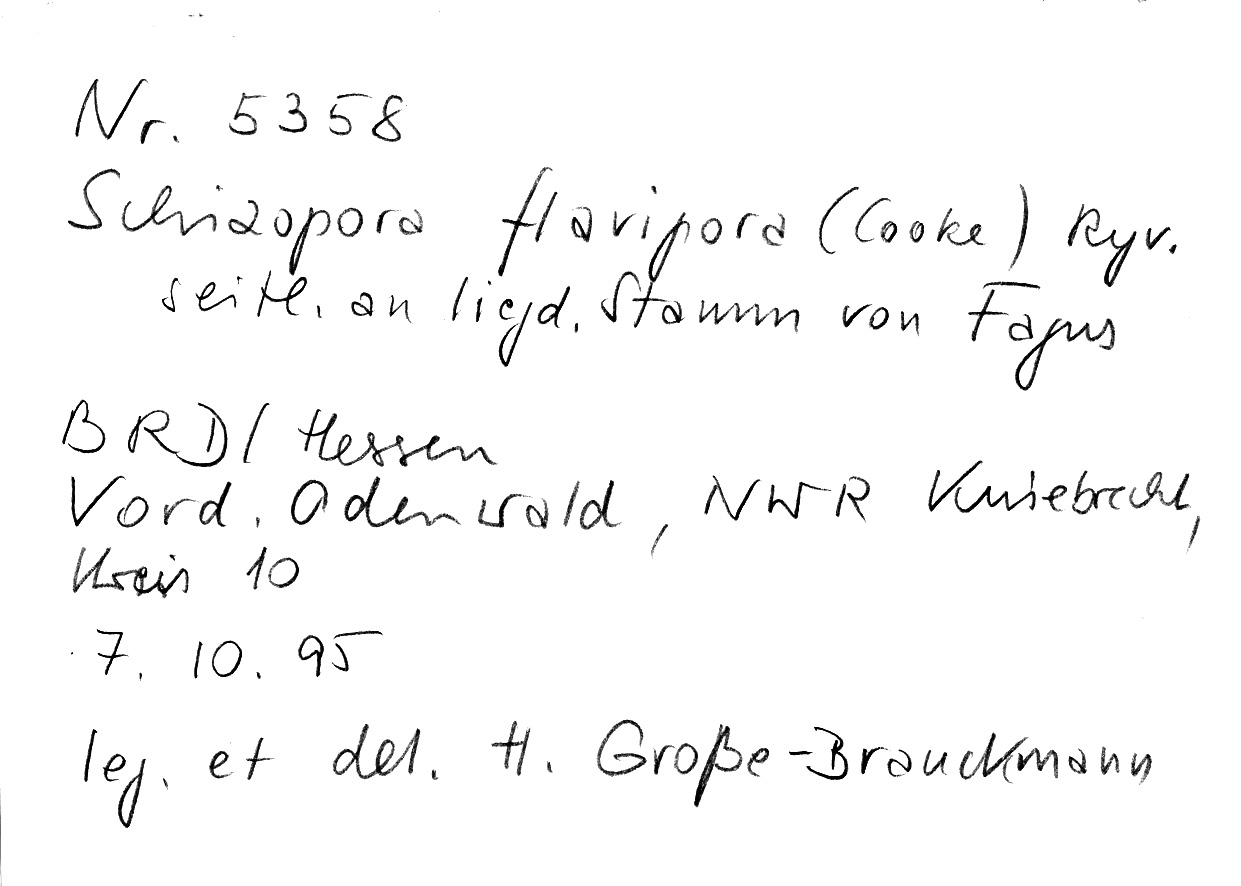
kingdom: Plantae
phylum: Tracheophyta
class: Magnoliopsida
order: Fagales
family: Fagaceae
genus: Fagus
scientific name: Fagus sylvatica
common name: Beech
